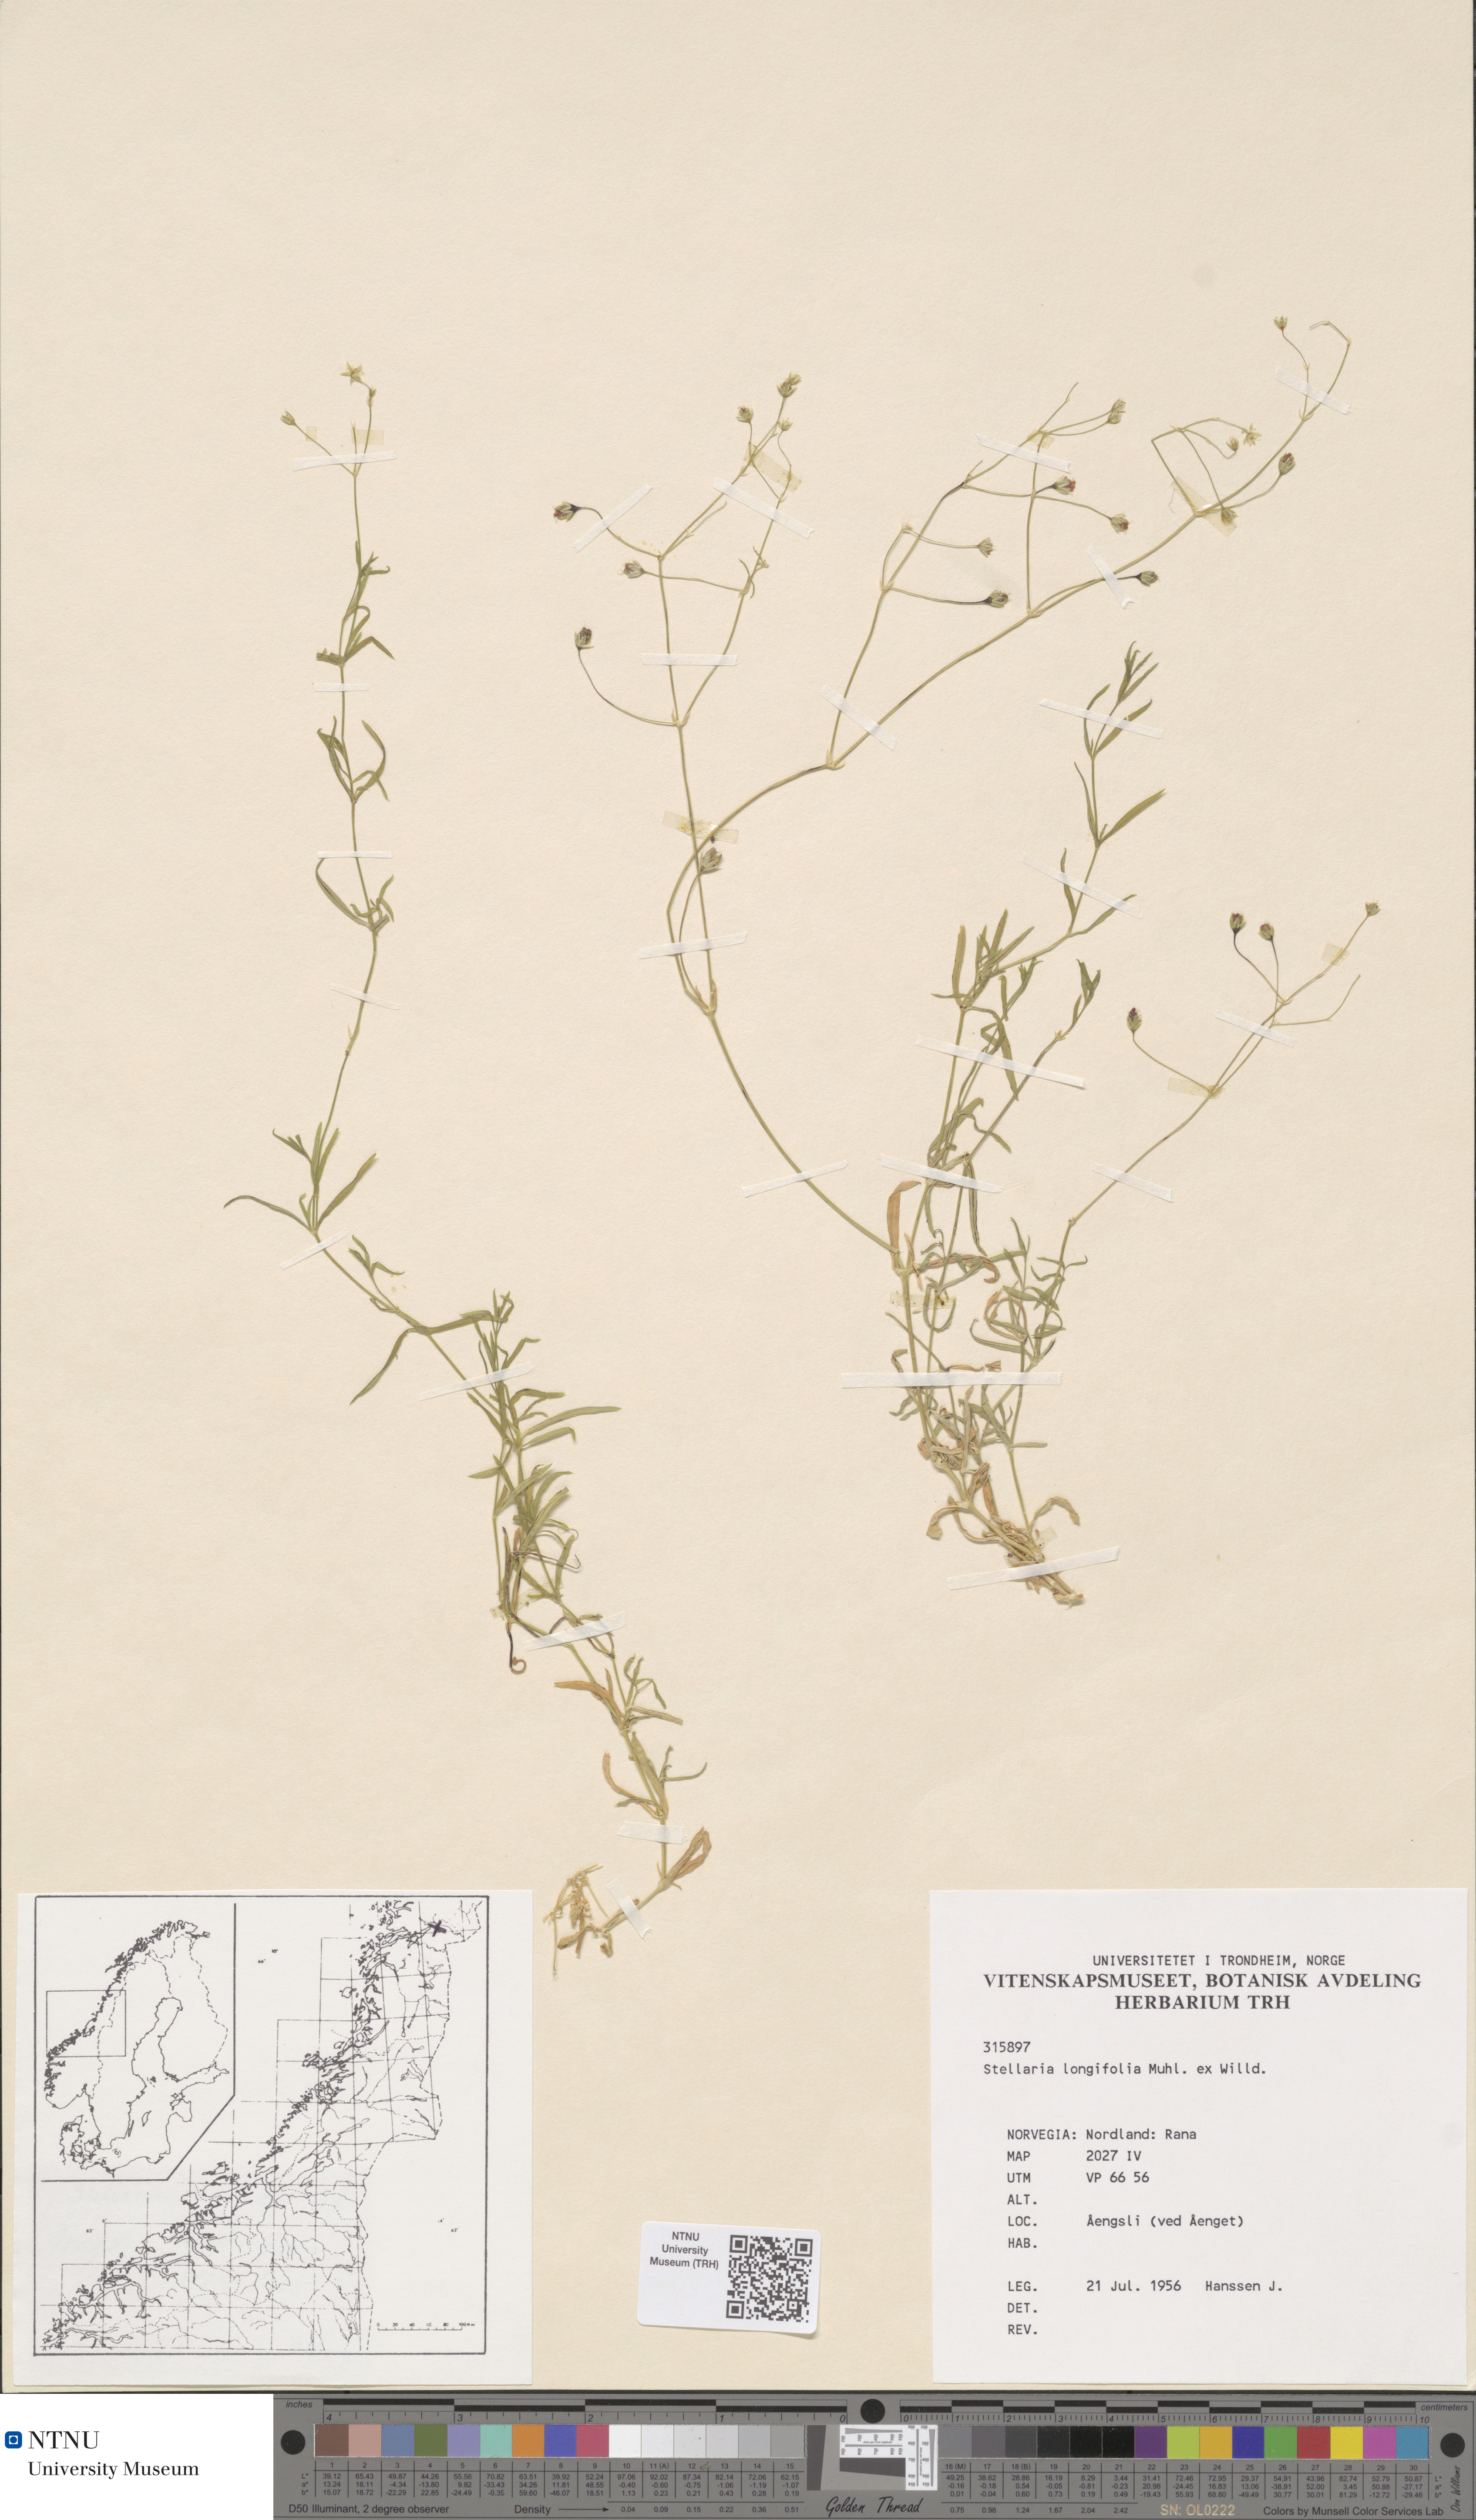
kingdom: Plantae
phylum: Tracheophyta
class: Magnoliopsida
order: Caryophyllales
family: Caryophyllaceae
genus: Stellaria
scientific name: Stellaria longifolia
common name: Long-leaved chickweed
